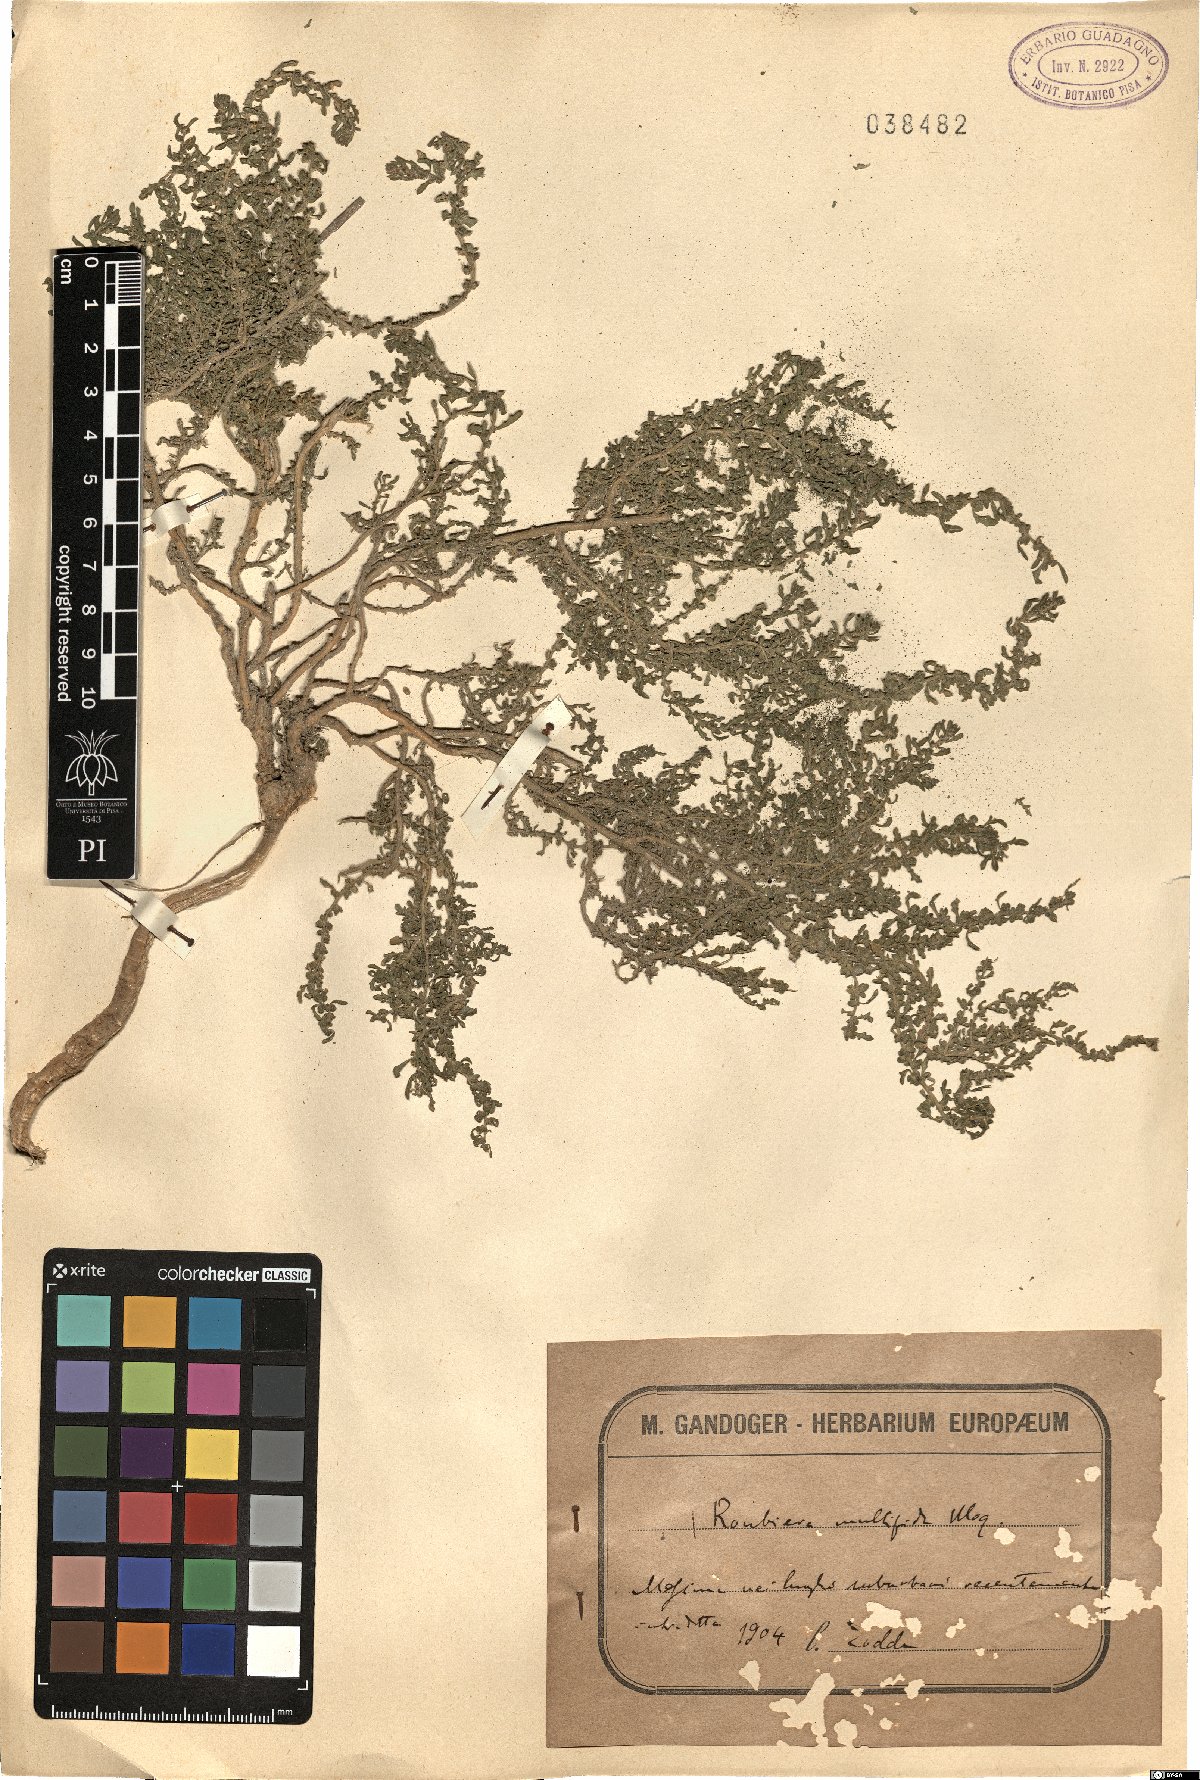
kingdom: Plantae
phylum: Tracheophyta
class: Magnoliopsida
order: Caryophyllales
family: Amaranthaceae
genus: Dysphania
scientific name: Dysphania multifida
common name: Cutleaf goosefoot
